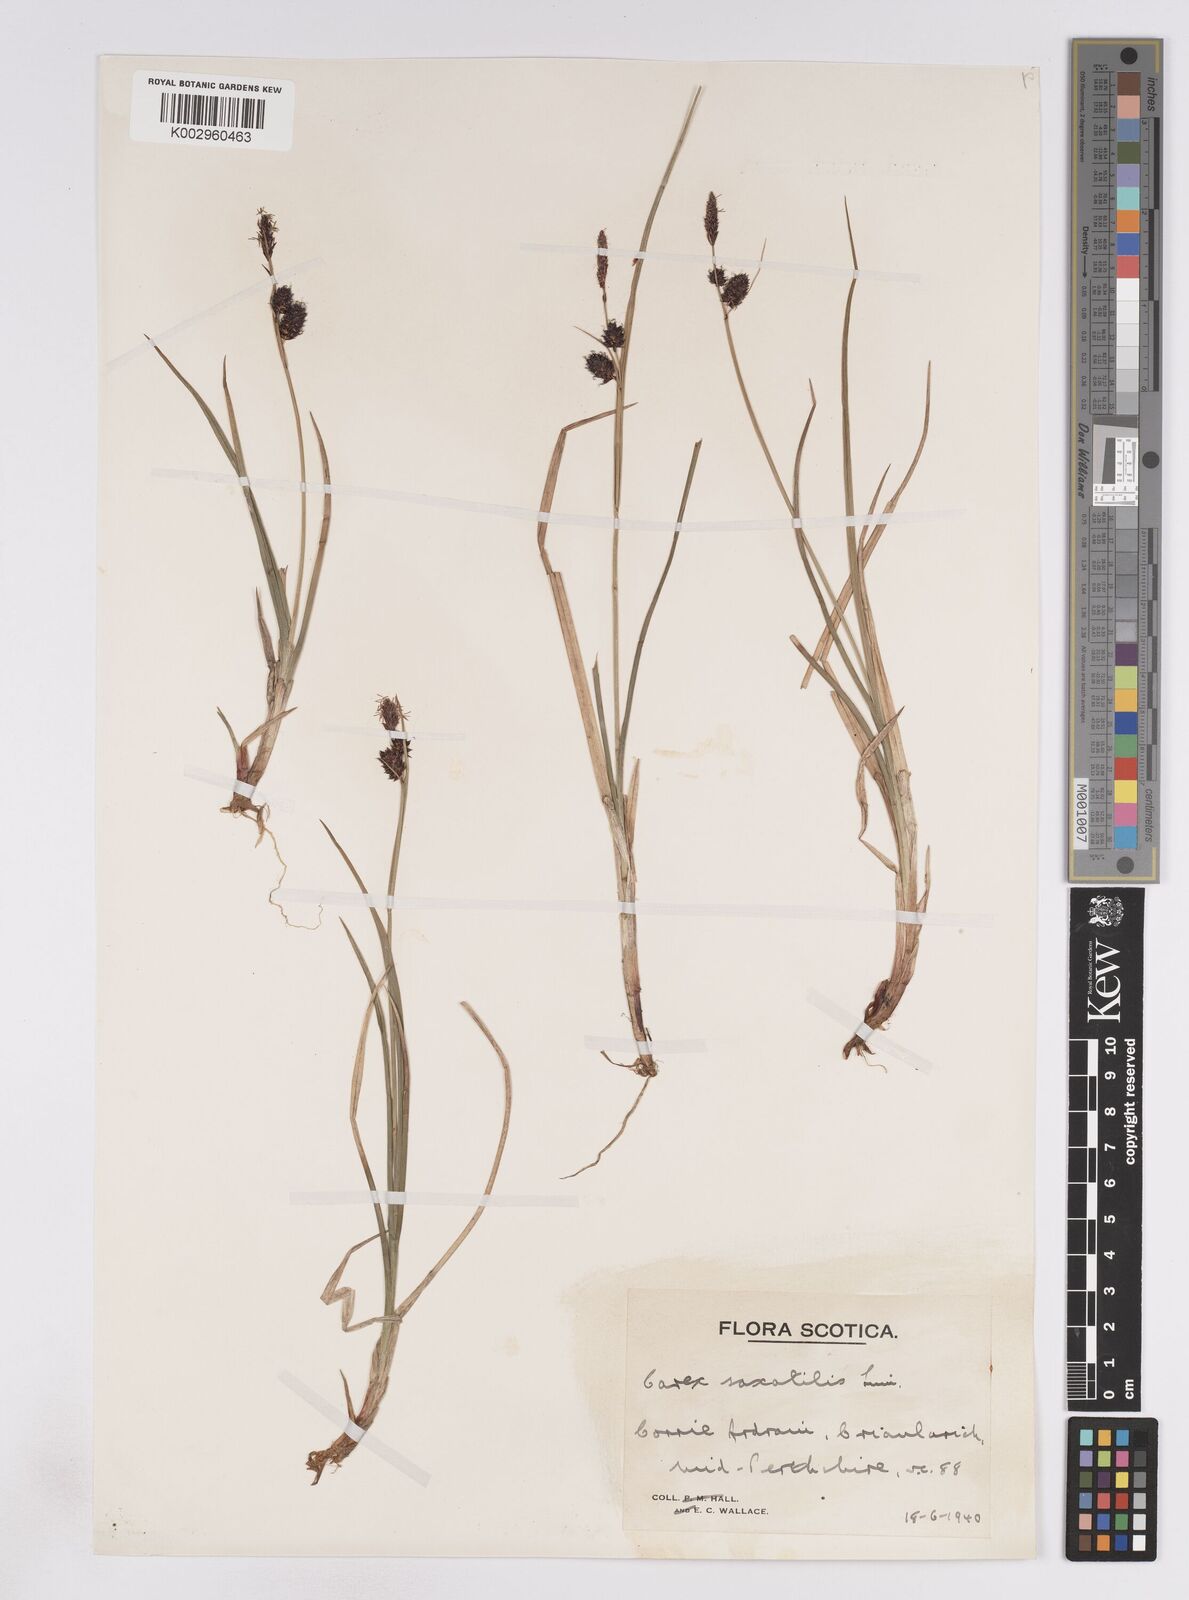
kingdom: Plantae
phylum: Tracheophyta
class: Liliopsida
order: Poales
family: Cyperaceae
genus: Carex
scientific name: Carex saxatilis
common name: Russet sedge
